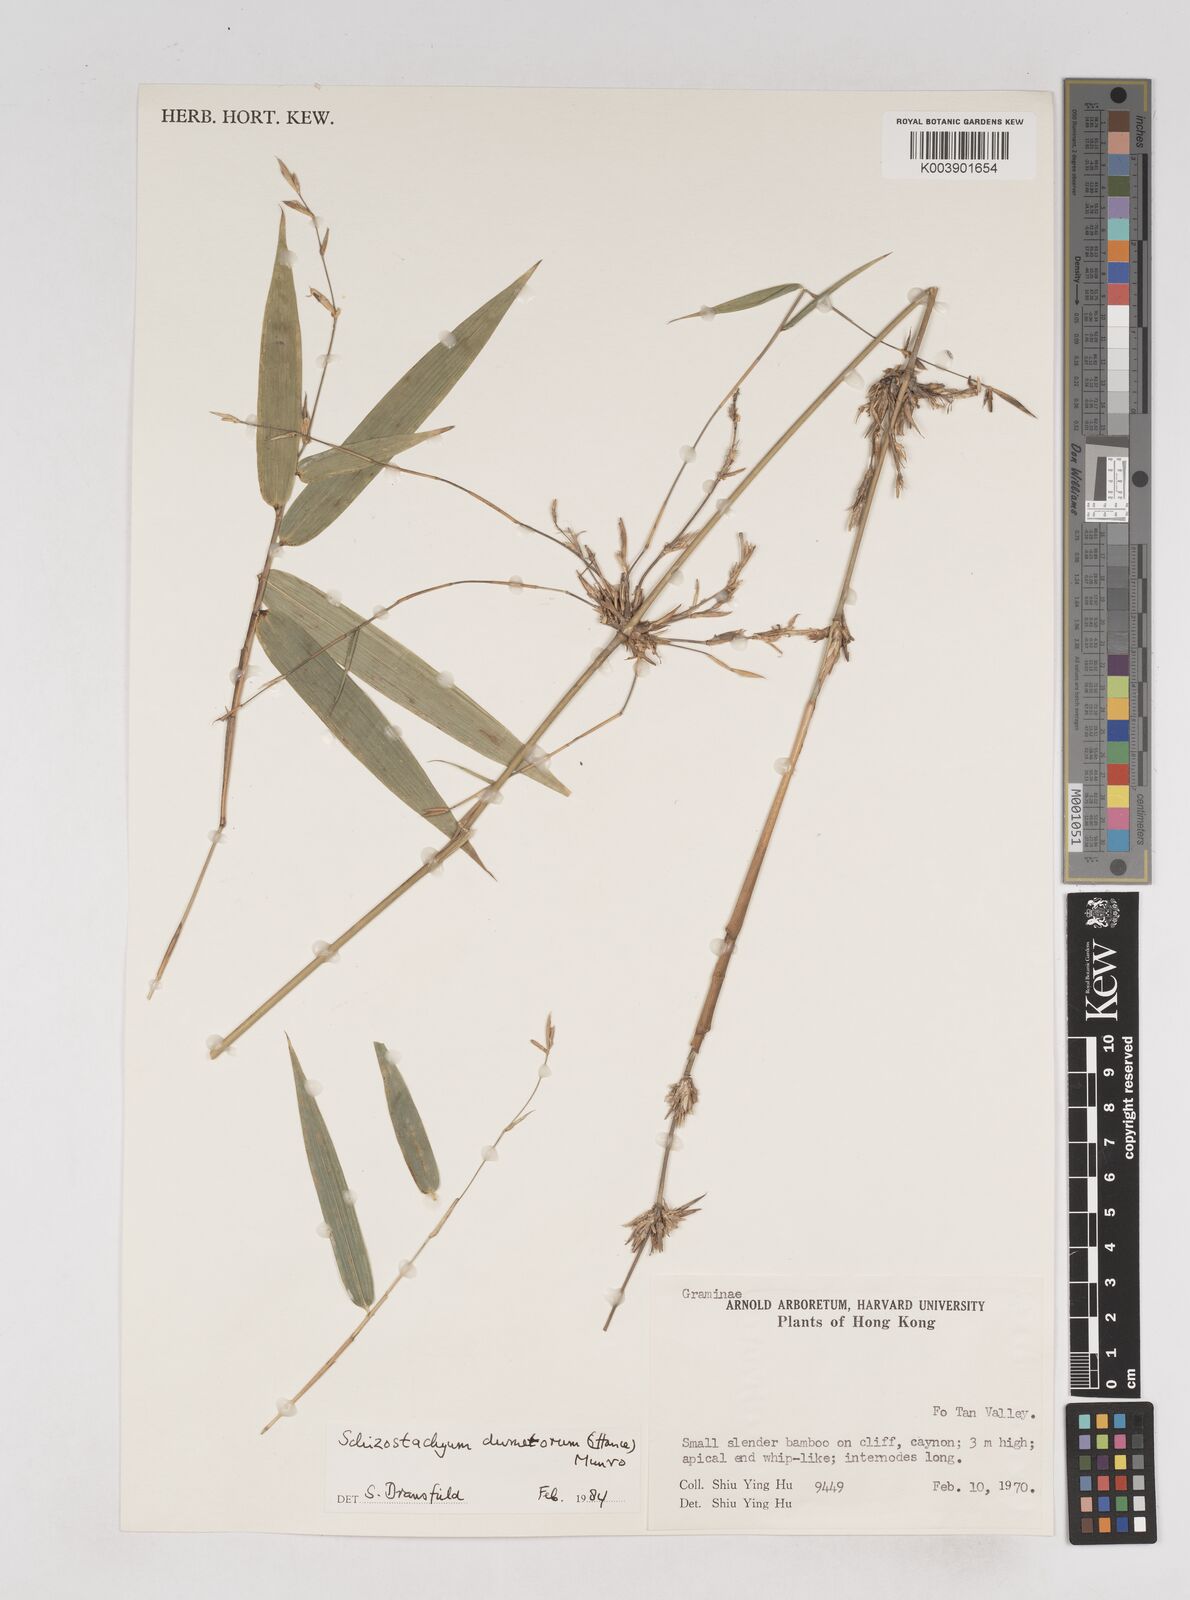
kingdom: Plantae
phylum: Tracheophyta
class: Liliopsida
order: Poales
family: Poaceae
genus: Schizostachyum
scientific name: Schizostachyum dumetorum
